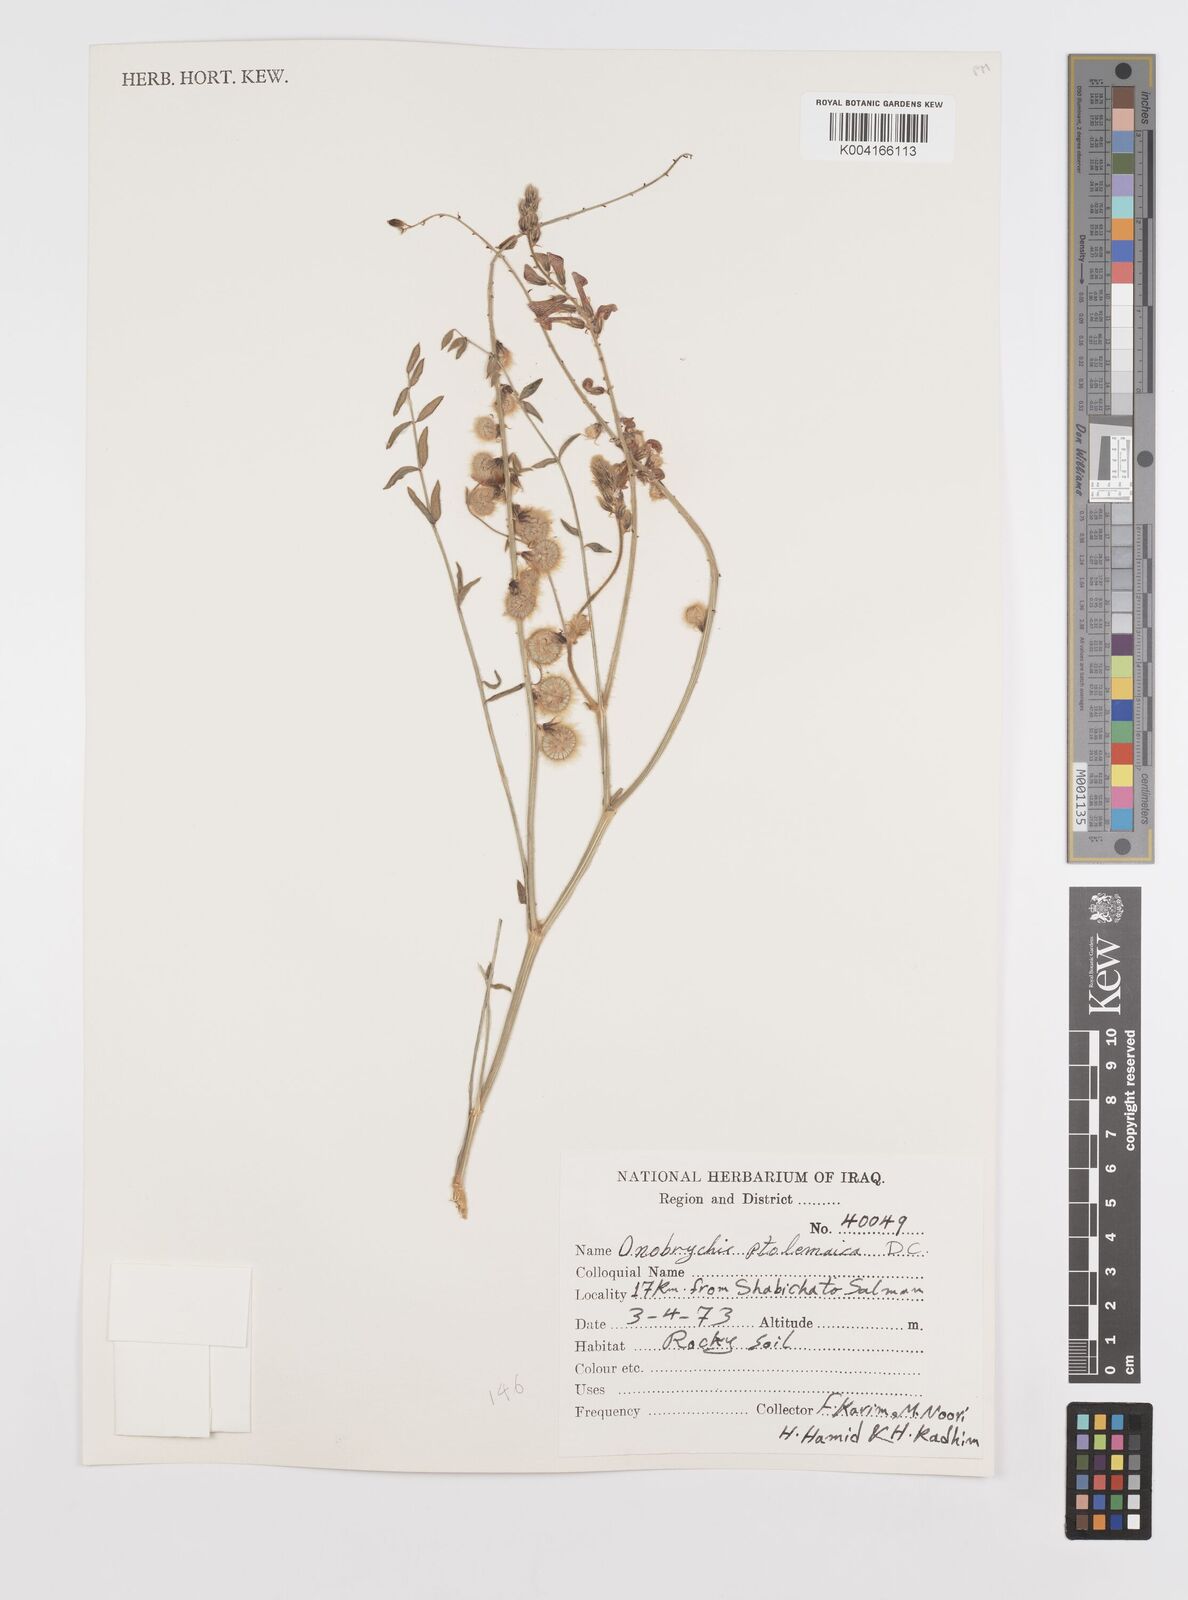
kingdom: Plantae
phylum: Tracheophyta
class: Magnoliopsida
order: Fabales
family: Fabaceae
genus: Onobrychis
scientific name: Onobrychis ptolemaica
